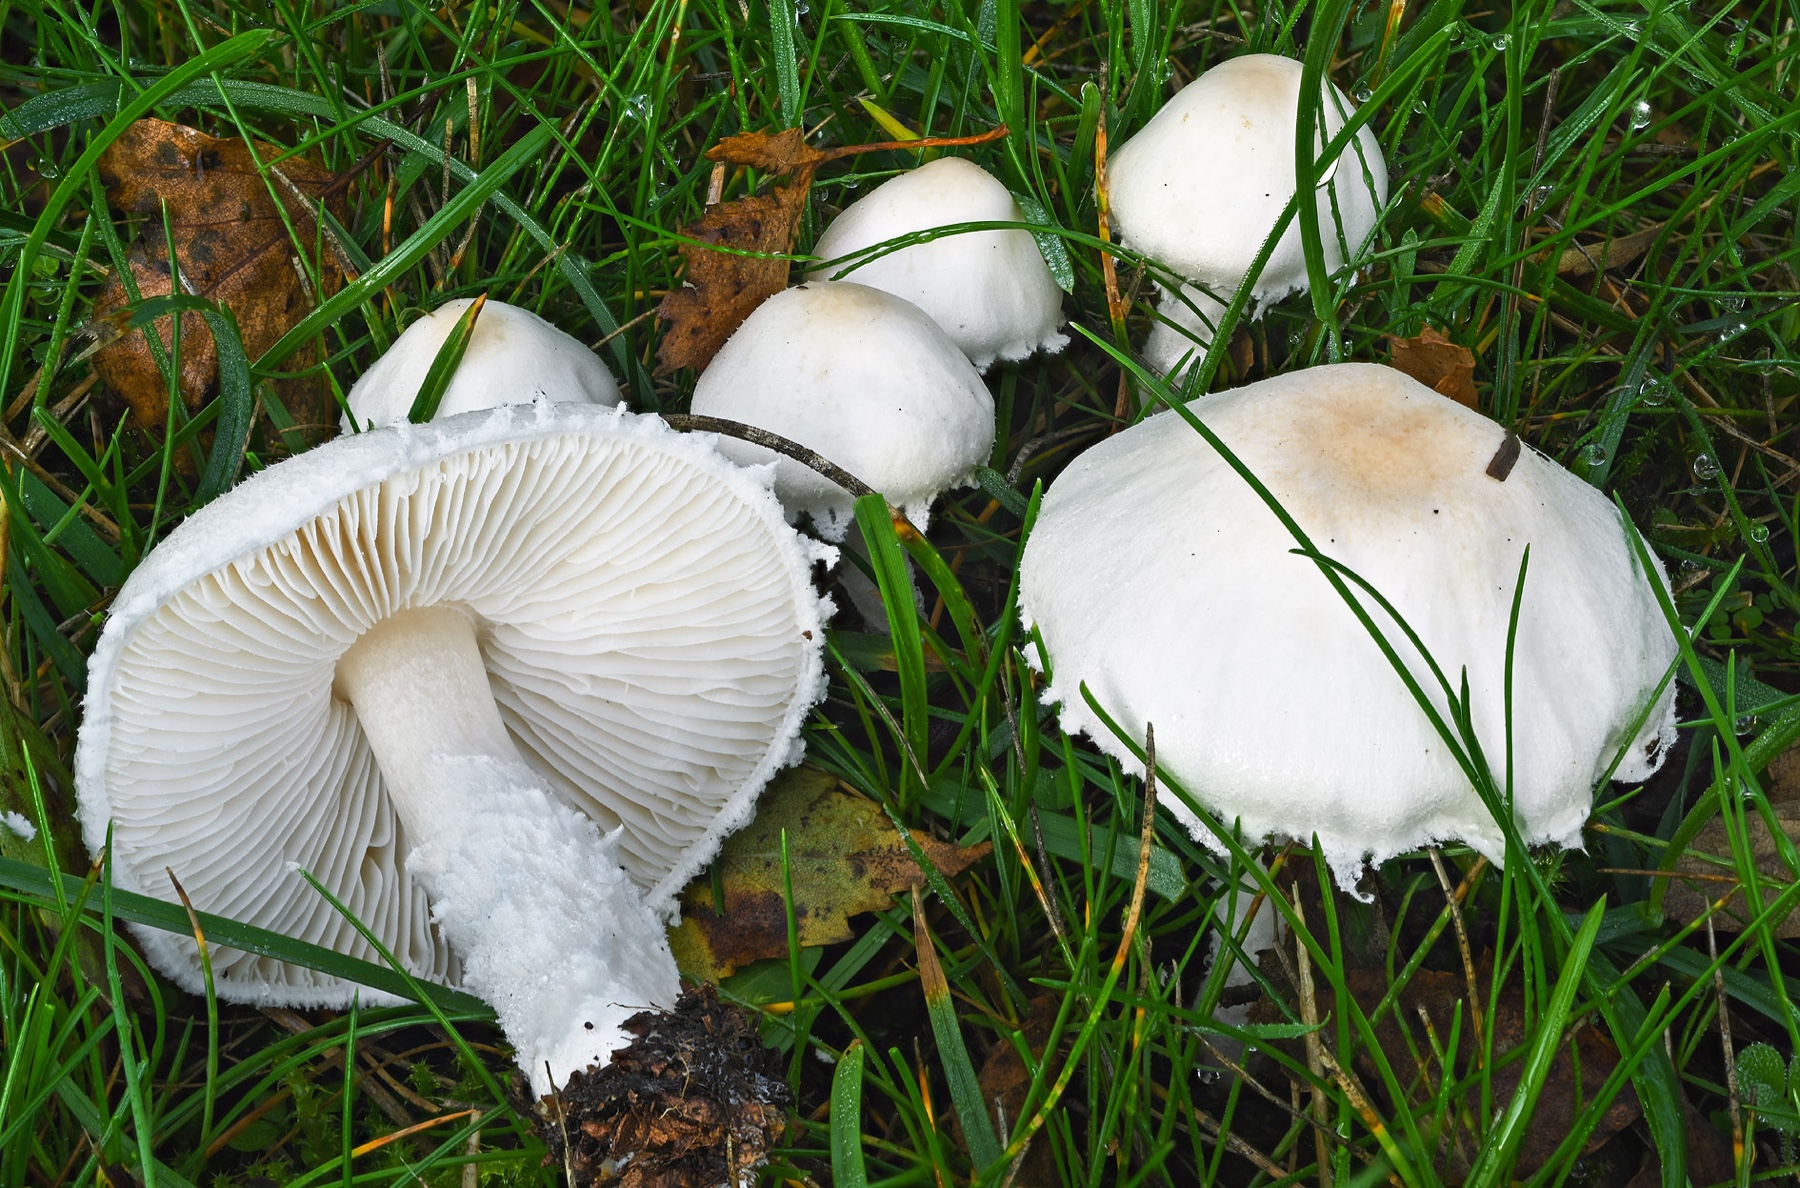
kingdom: Fungi
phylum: Basidiomycota
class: Agaricomycetes
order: Agaricales
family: Agaricaceae
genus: Lepiota
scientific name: Lepiota erminea
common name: hvid parasolhat
